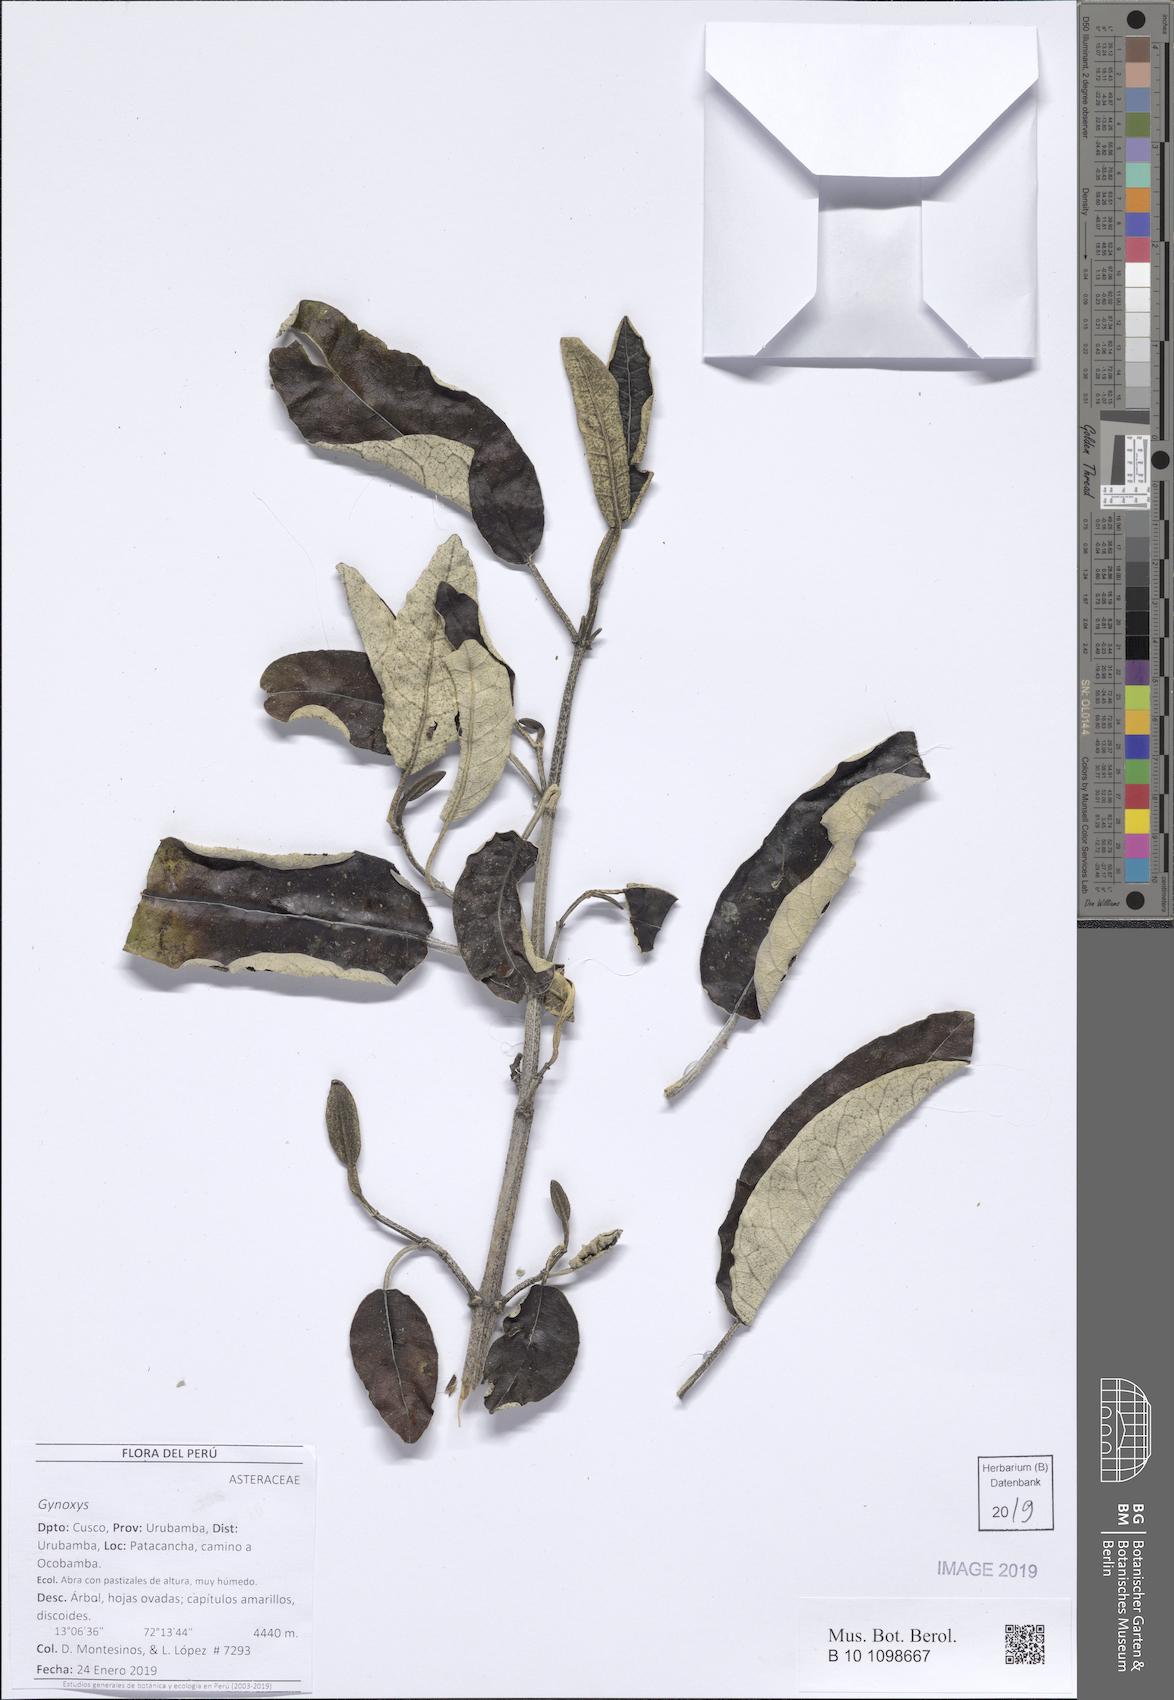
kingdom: Plantae
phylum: Tracheophyta
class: Magnoliopsida
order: Asterales
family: Asteraceae
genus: Gynoxys
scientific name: Gynoxys
